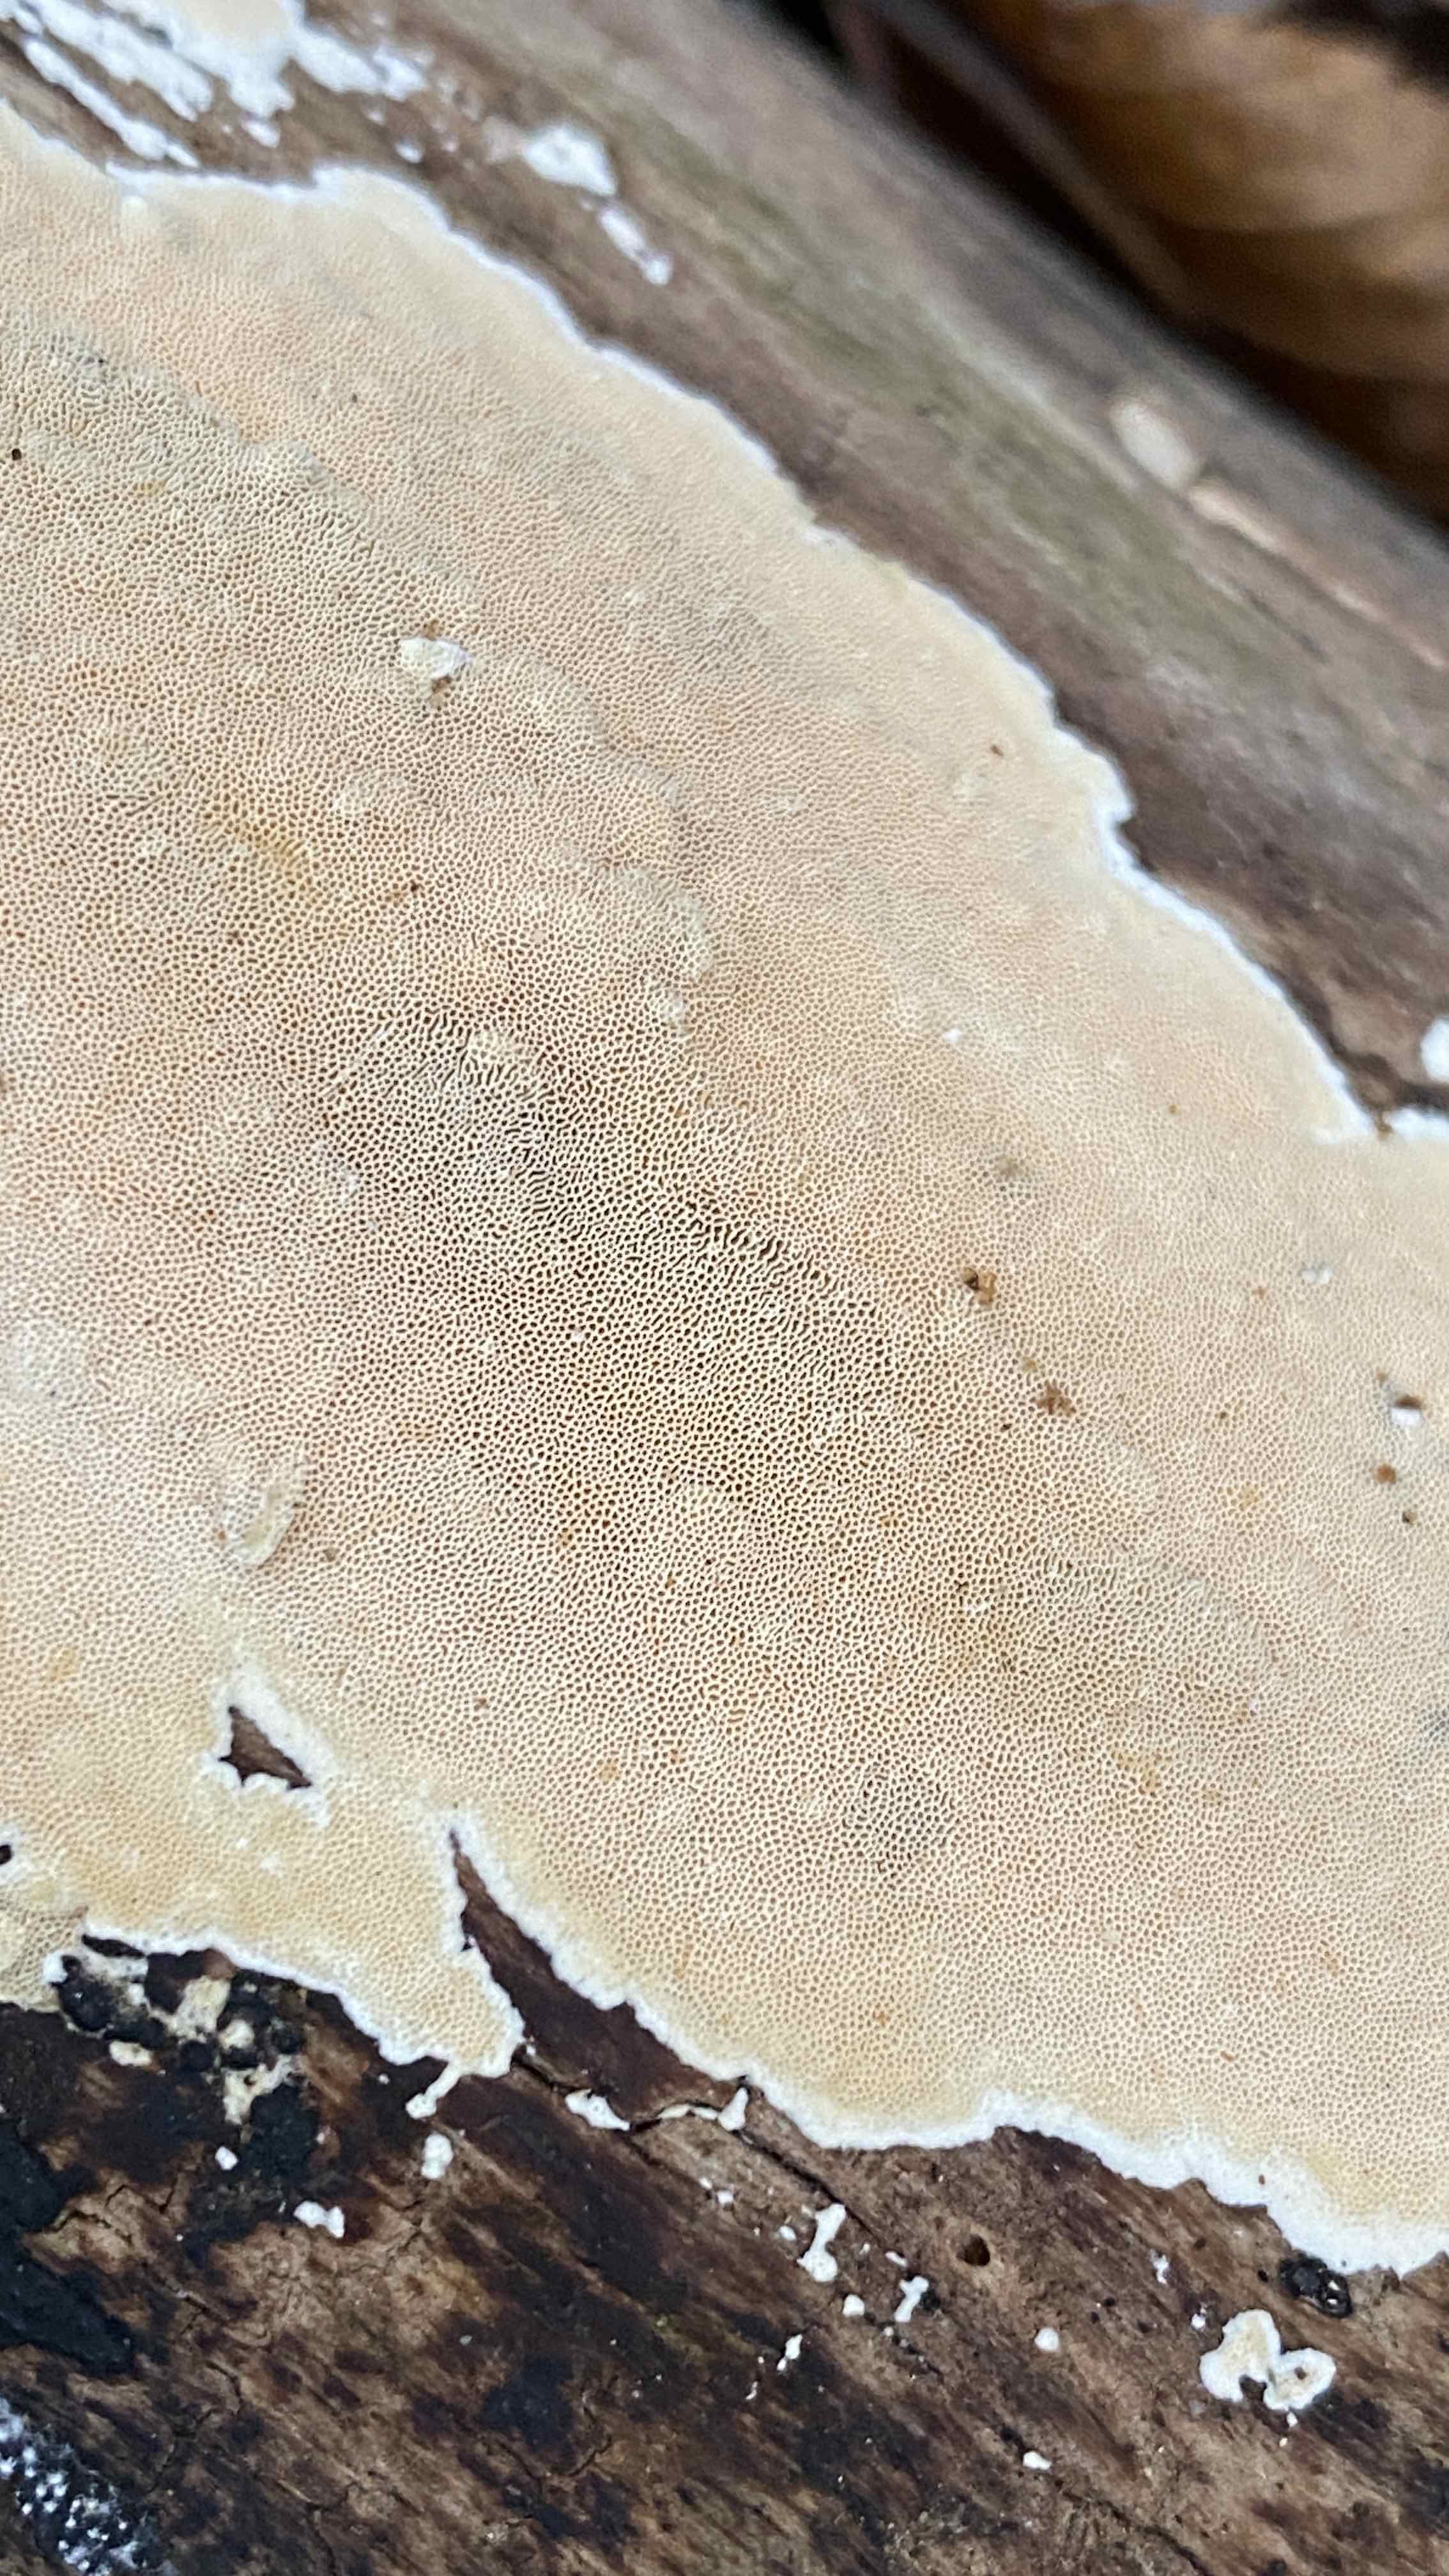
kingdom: Fungi
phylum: Basidiomycota
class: Agaricomycetes
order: Polyporales
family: Steccherinaceae
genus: Junghuhnia
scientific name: Junghuhnia nitida
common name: almindelig skønporesvamp
